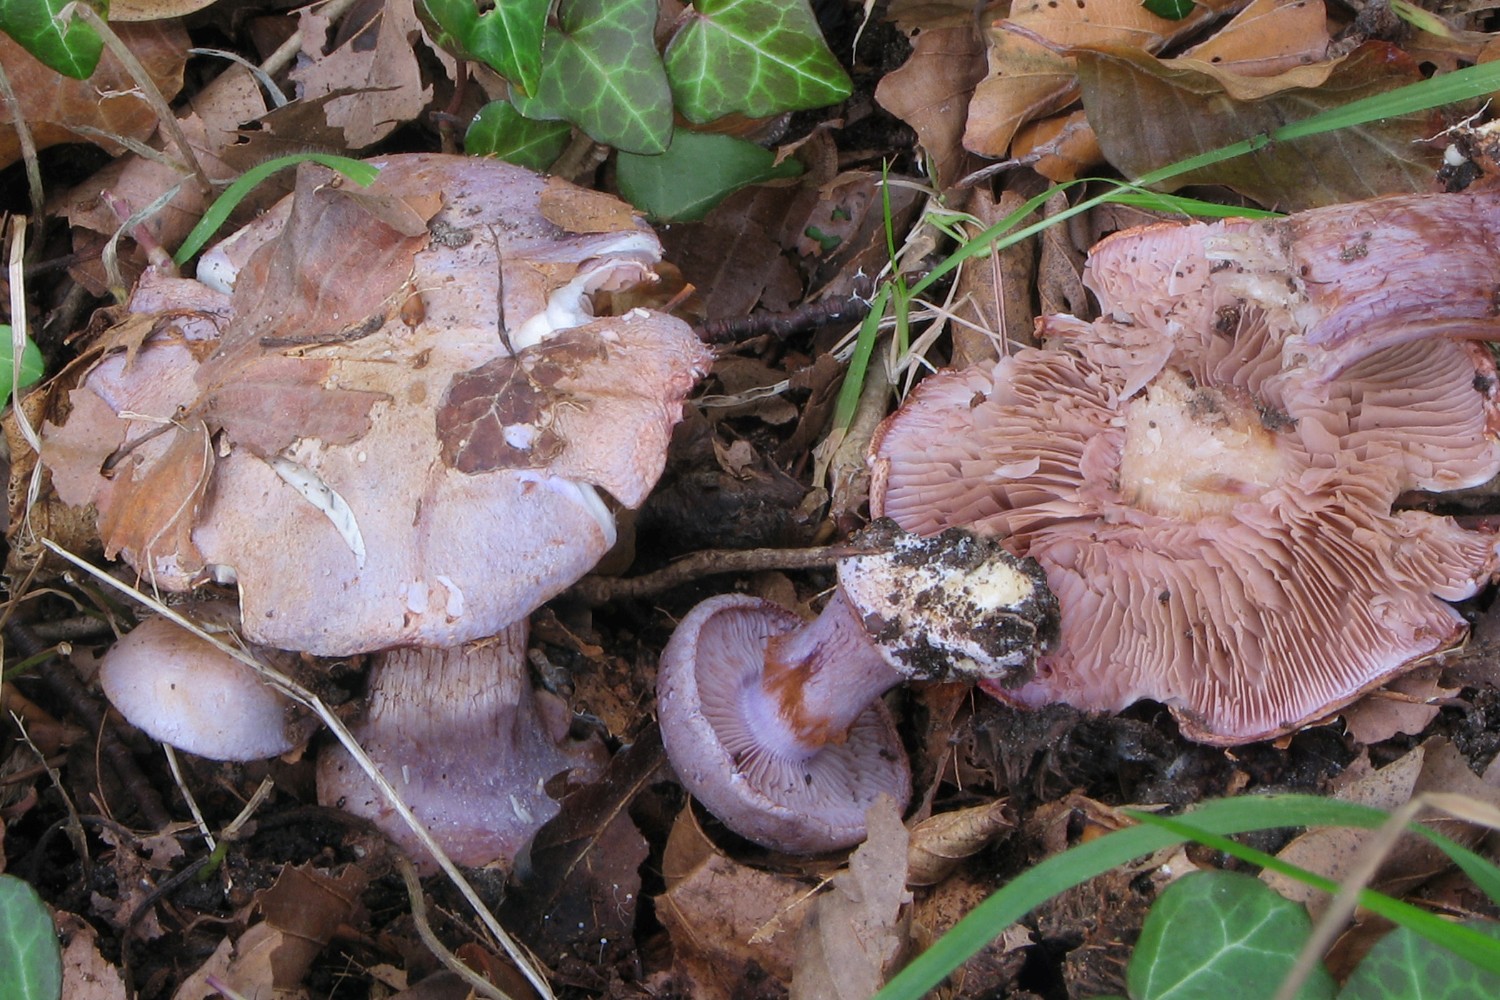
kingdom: Fungi
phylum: Basidiomycota
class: Agaricomycetes
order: Agaricales
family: Cortinariaceae
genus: Calonarius
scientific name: Calonarius violaceipes
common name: stedmoder-slørhat
